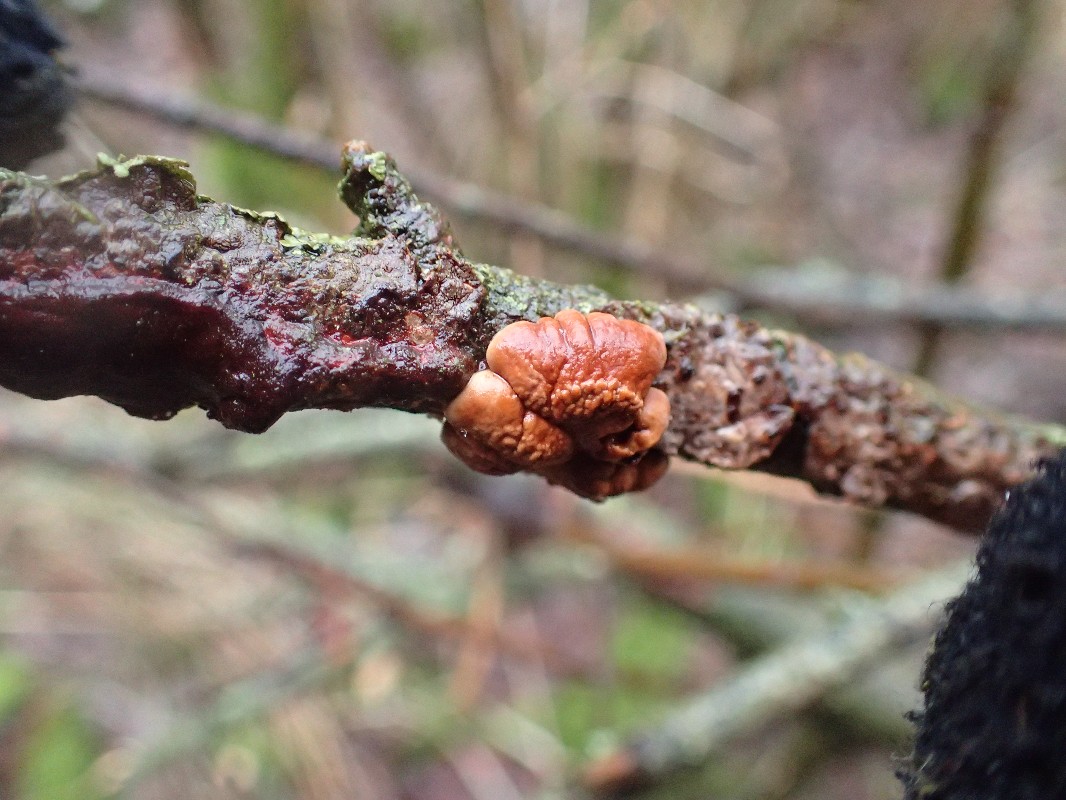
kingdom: Fungi
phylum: Ascomycota
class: Sordariomycetes
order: Hypocreales
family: Hypocreaceae
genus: Hypocreopsis
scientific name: Hypocreopsis lichenoides
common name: pilfinger
